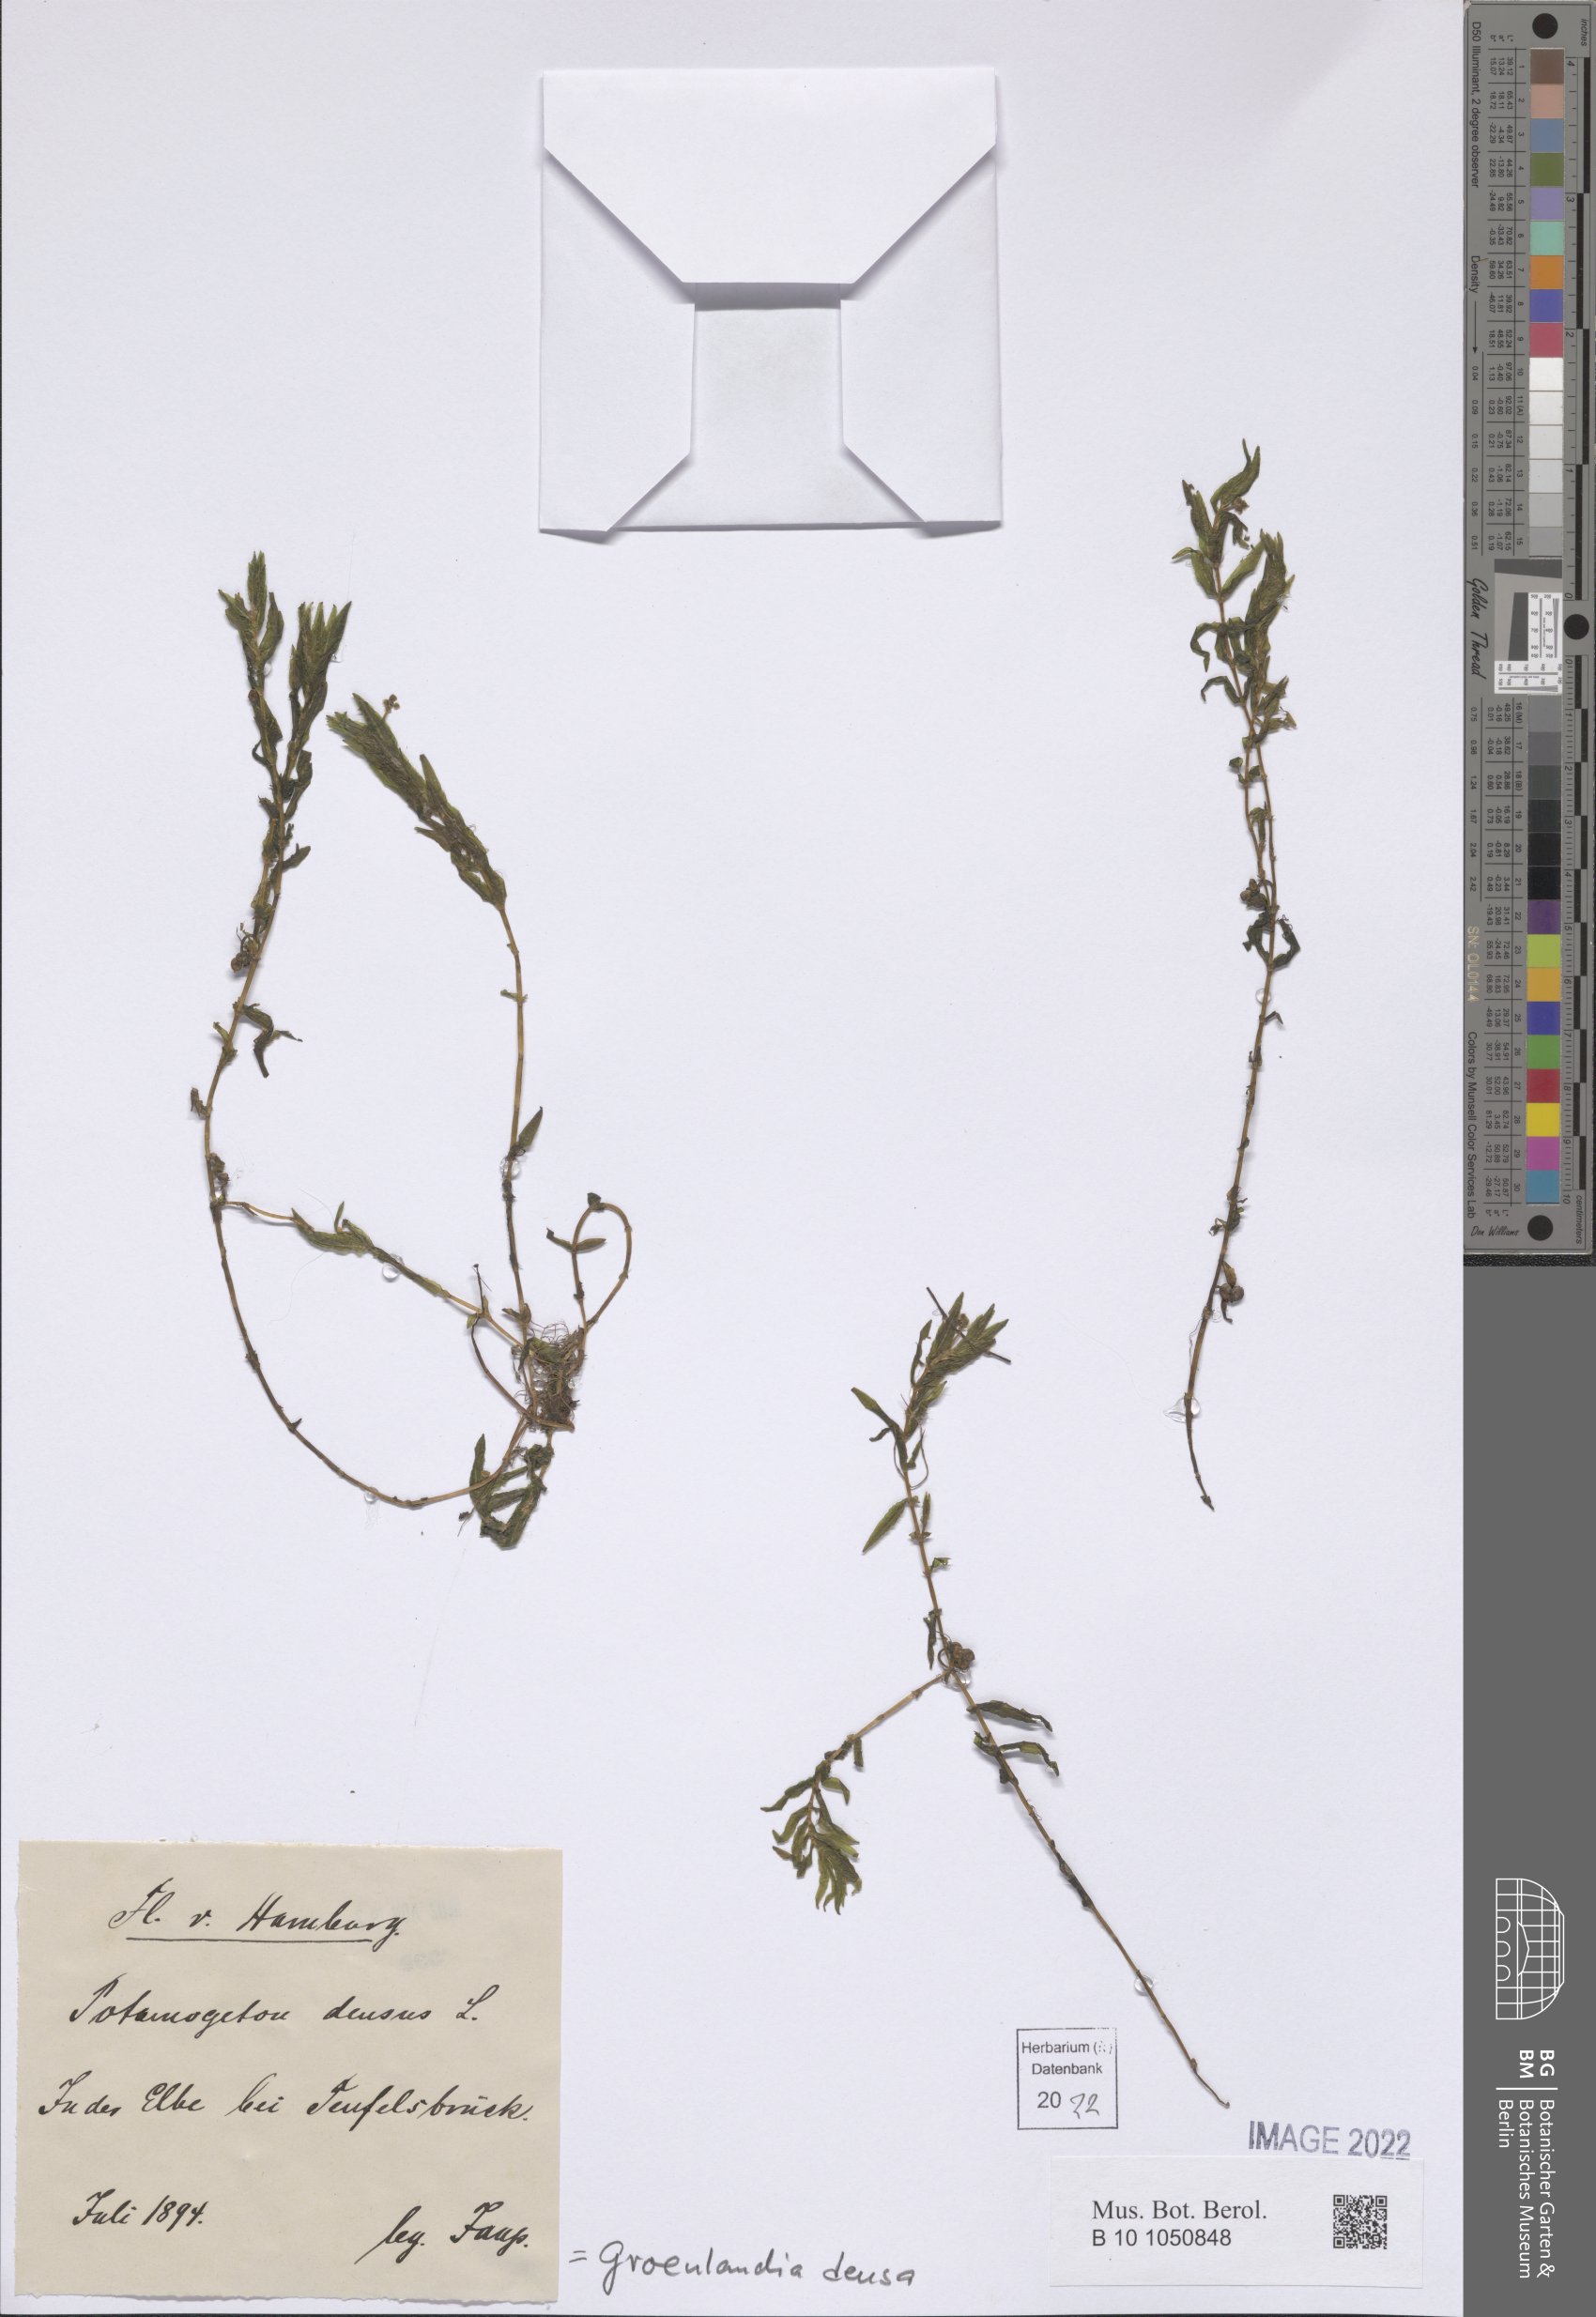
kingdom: Plantae
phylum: Tracheophyta
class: Liliopsida
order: Alismatales
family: Potamogetonaceae
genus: Groenlandia
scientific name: Groenlandia densa
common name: Opposite-leaved pondweed
